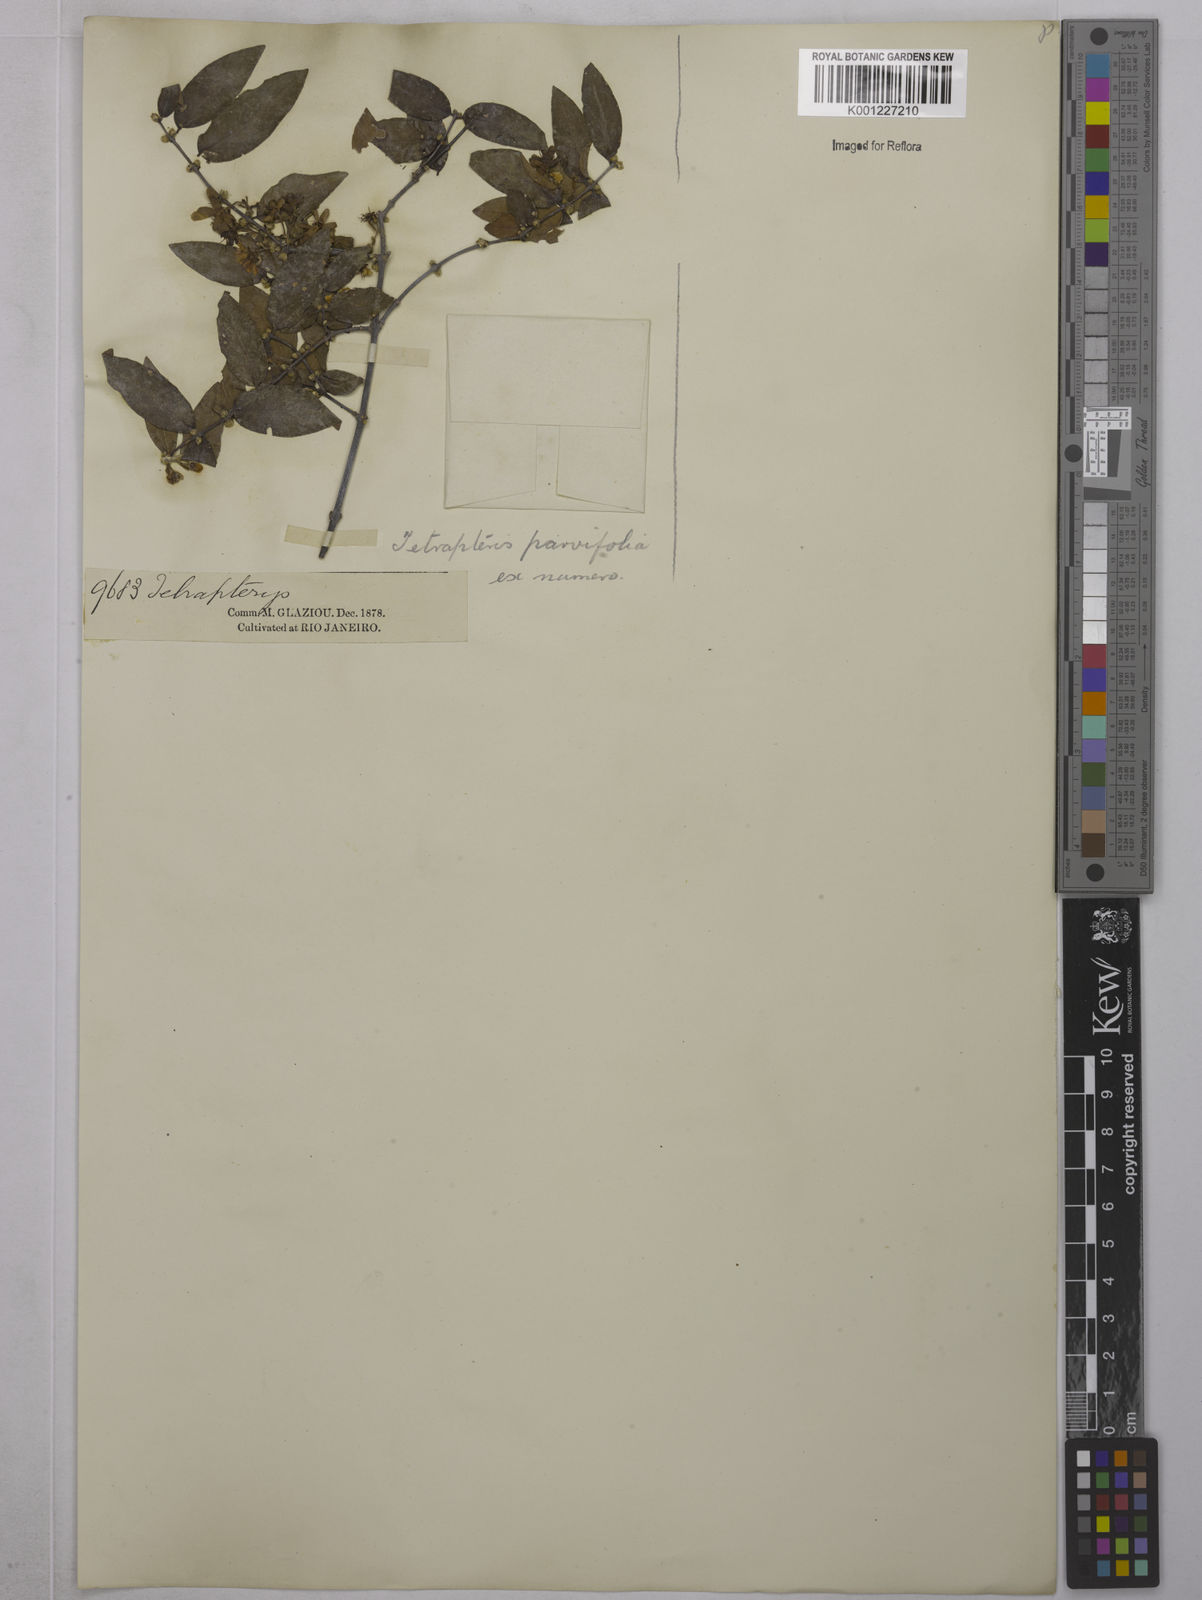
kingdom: Plantae
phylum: Tracheophyta
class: Magnoliopsida
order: Malpighiales
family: Malpighiaceae
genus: Glicophyllum
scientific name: Glicophyllum longibracteatum
